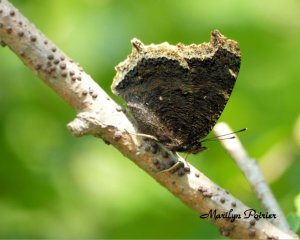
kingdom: Animalia
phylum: Arthropoda
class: Insecta
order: Lepidoptera
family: Nymphalidae
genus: Nymphalis
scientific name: Nymphalis antiopa
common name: Mourning Cloak
